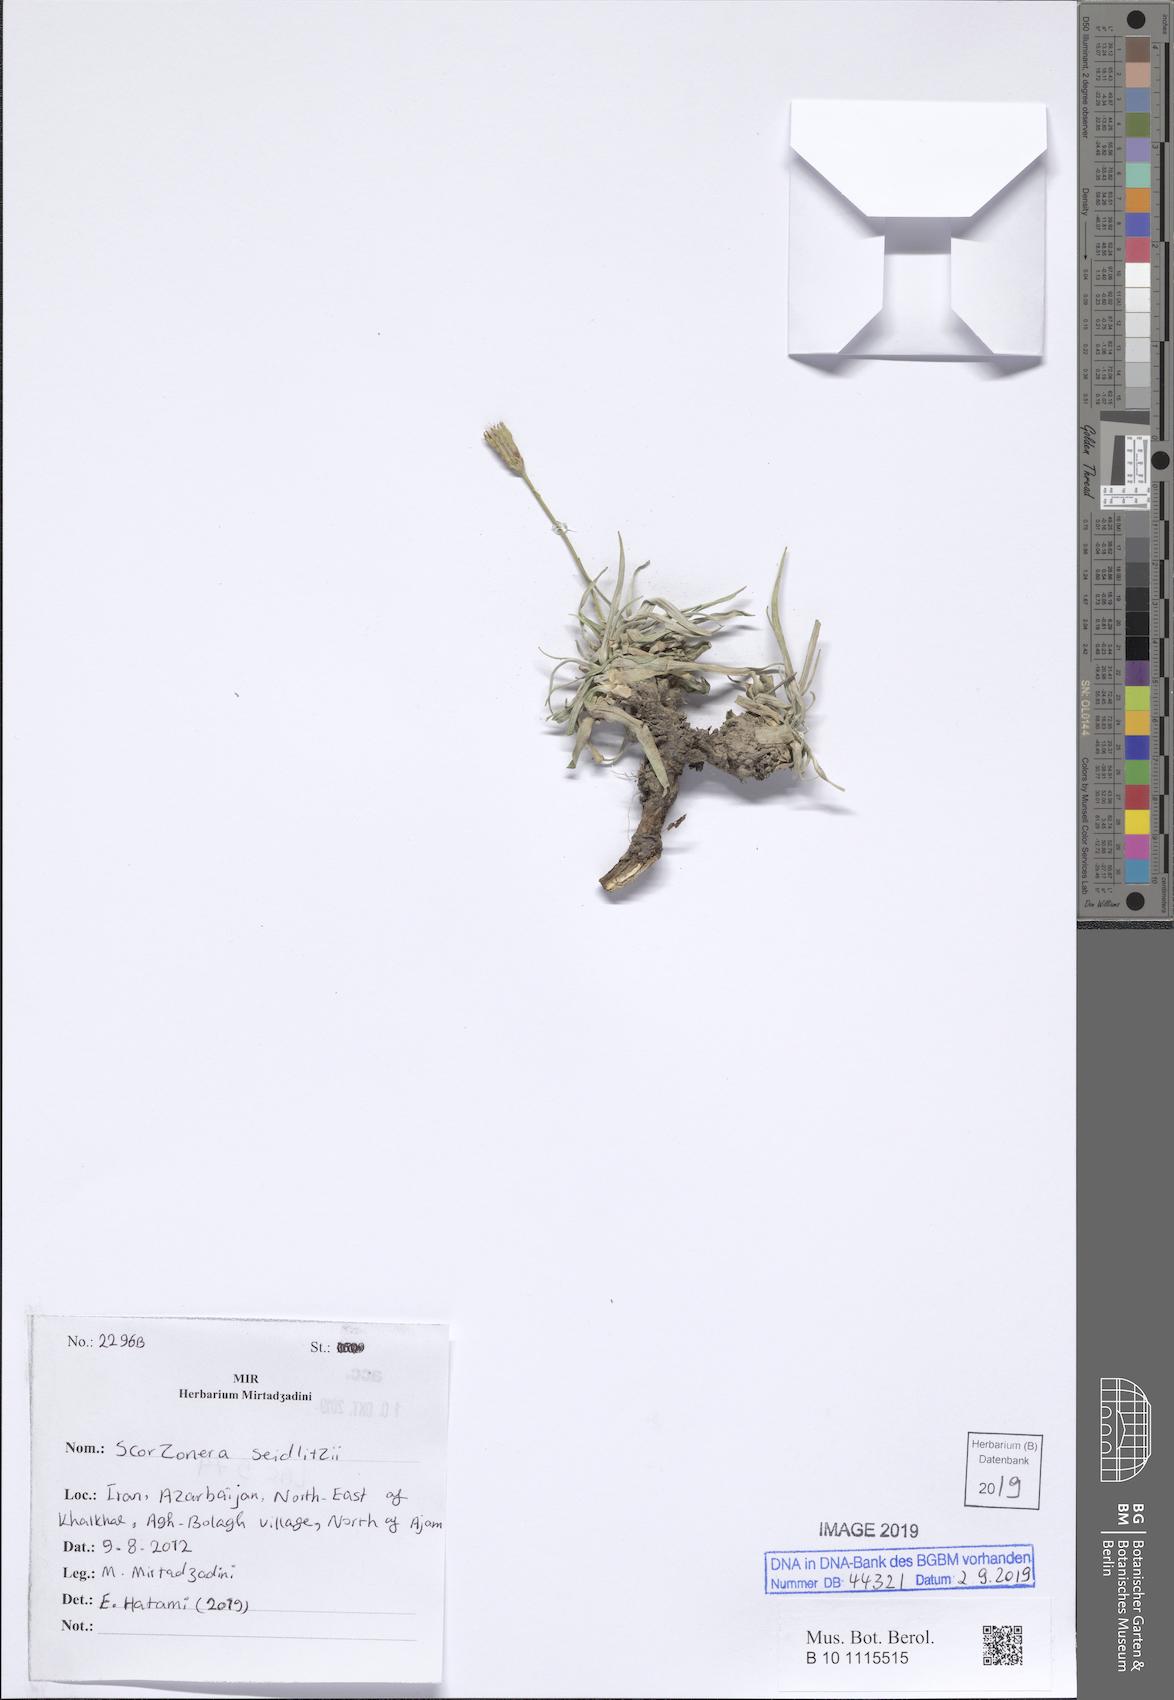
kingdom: Plantae
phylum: Tracheophyta
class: Magnoliopsida
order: Asterales
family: Asteraceae
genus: Goekyighitia
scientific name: Goekyighitia seidlitzii
